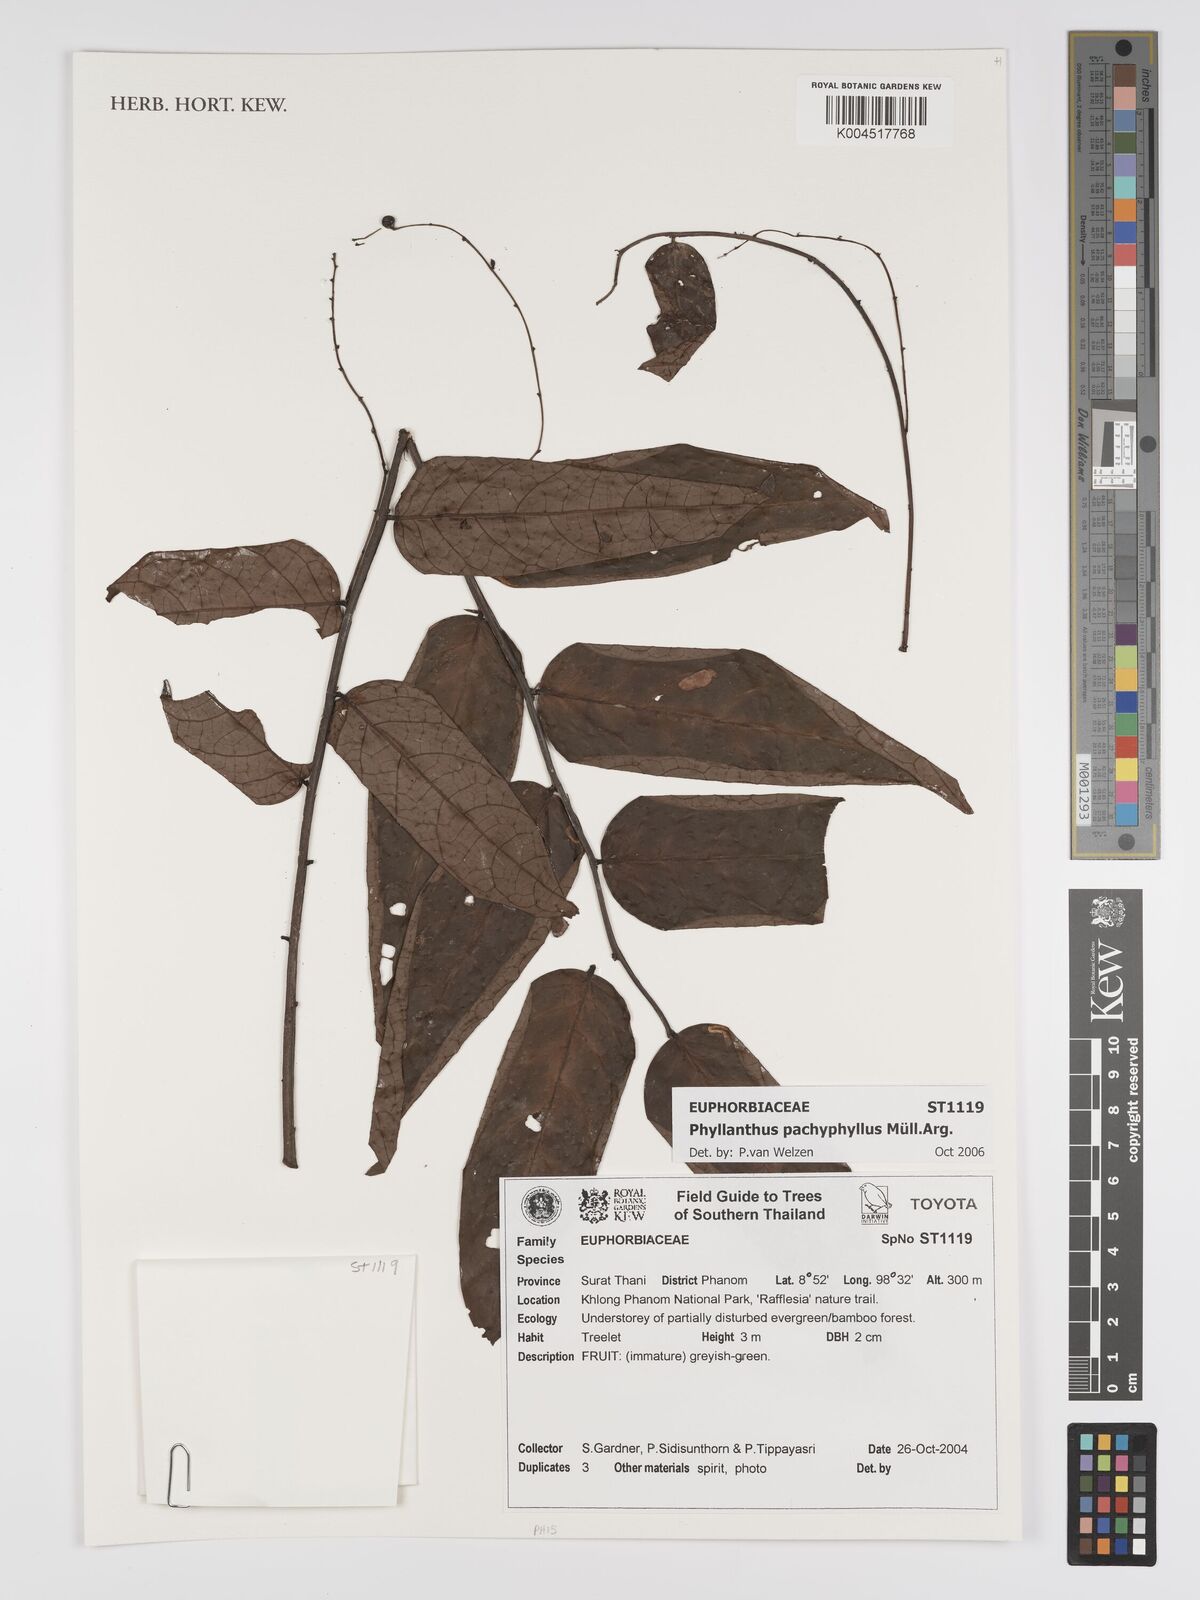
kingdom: Plantae
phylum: Tracheophyta
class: Magnoliopsida
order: Malpighiales
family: Phyllanthaceae
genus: Phyllanthus
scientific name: Phyllanthus pachyphyllus
